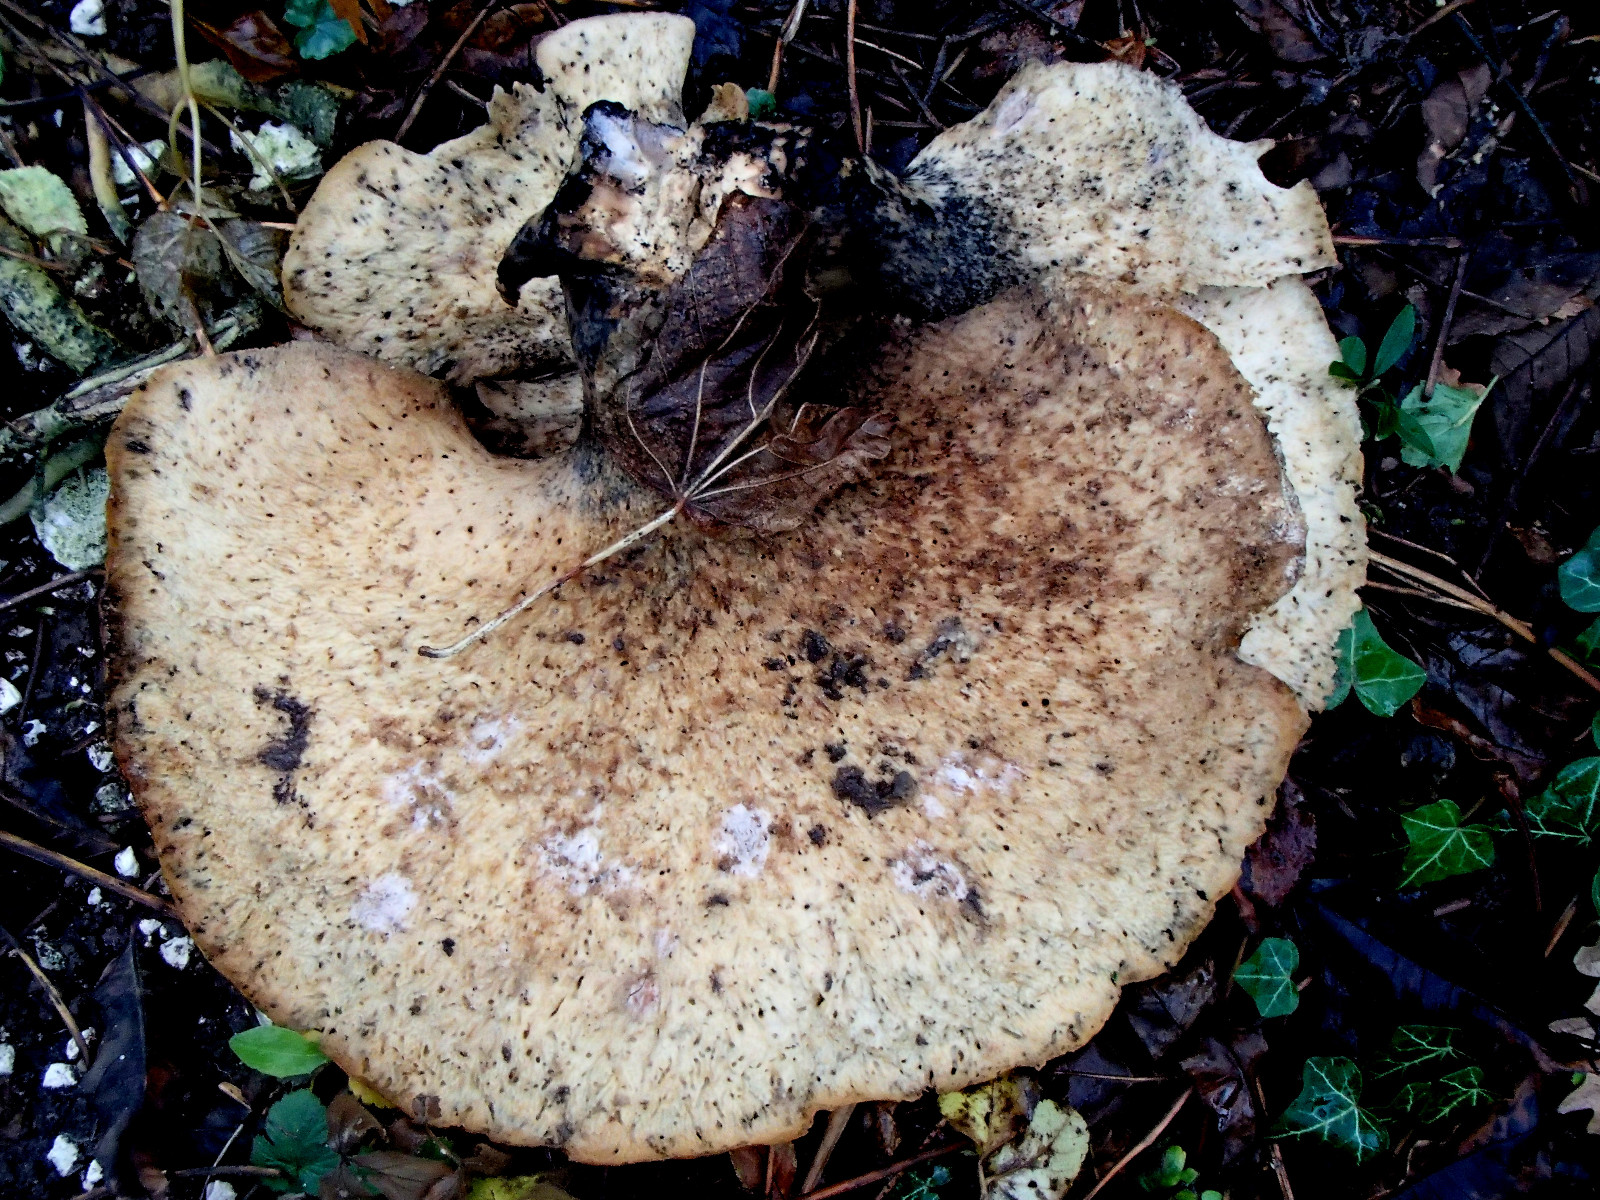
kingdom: Fungi
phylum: Basidiomycota
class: Agaricomycetes
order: Polyporales
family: Polyporaceae
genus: Cerioporus
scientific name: Cerioporus squamosus
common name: skællet stilkporesvamp
